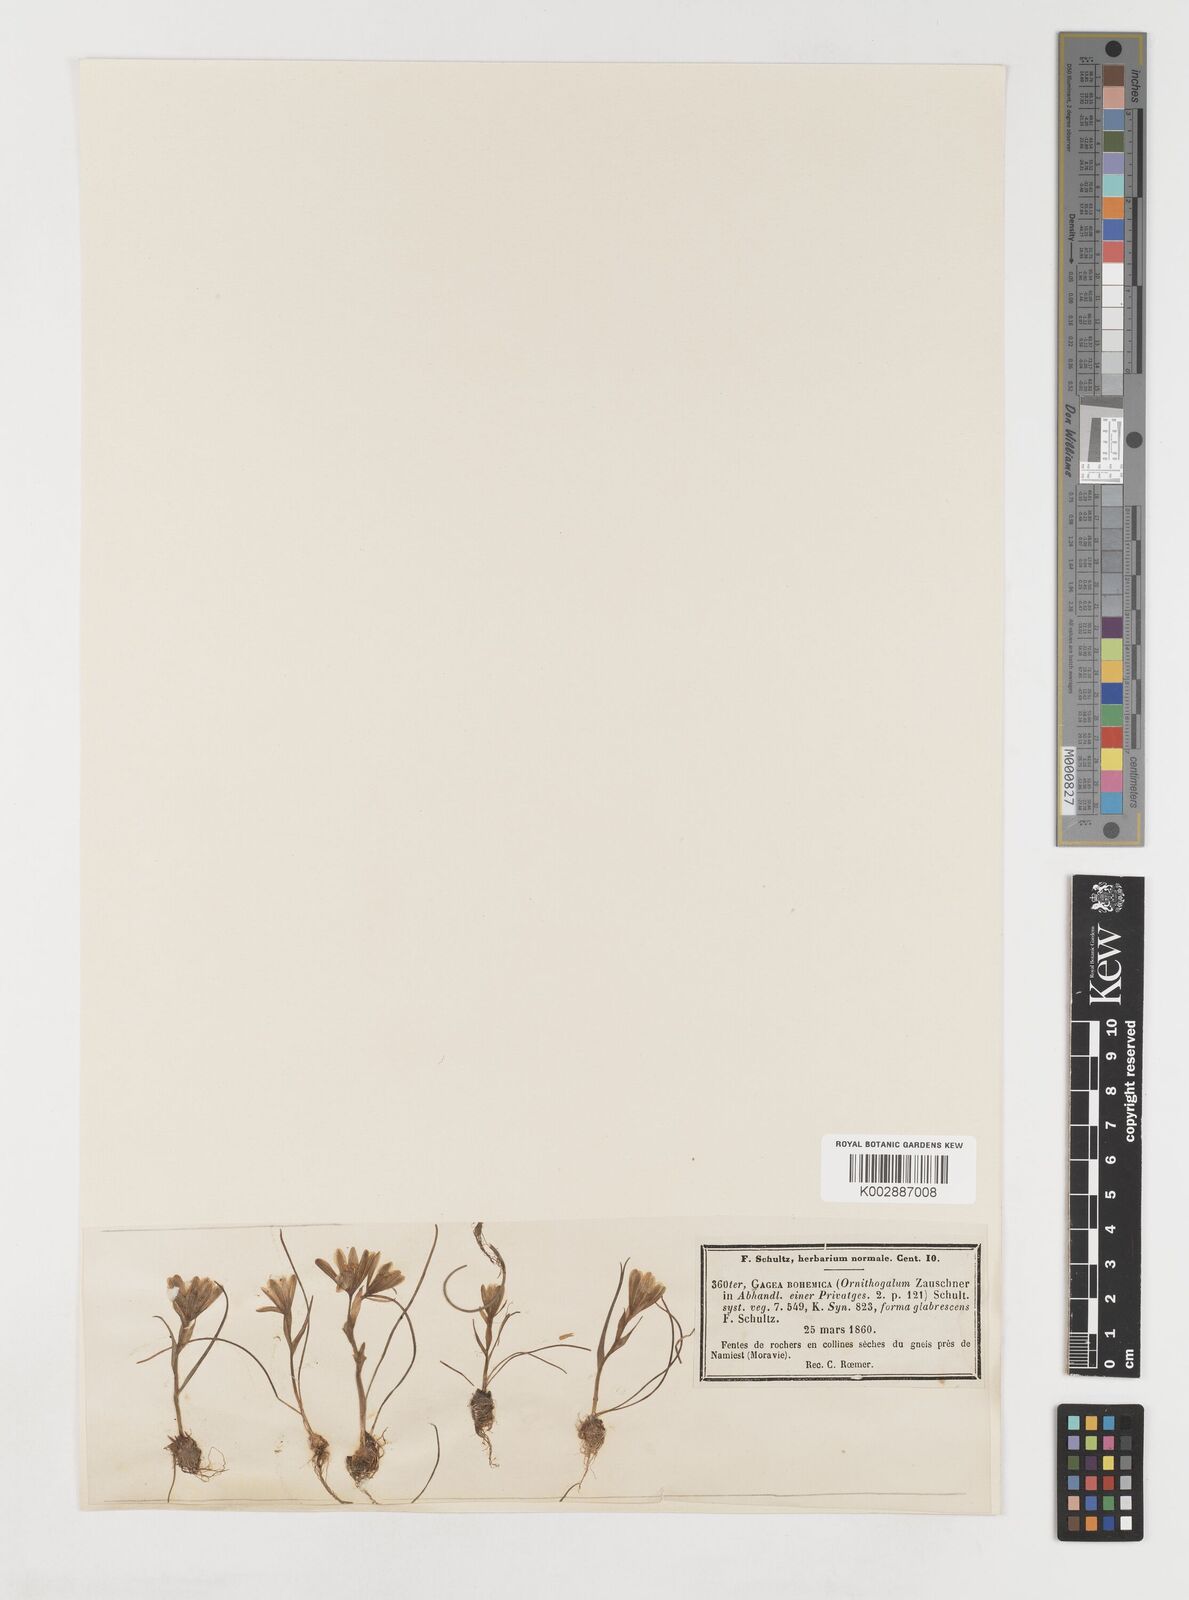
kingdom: Plantae
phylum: Tracheophyta
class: Liliopsida
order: Liliales
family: Liliaceae
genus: Gagea
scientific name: Gagea bohemica
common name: Early star-of-bethlehem
